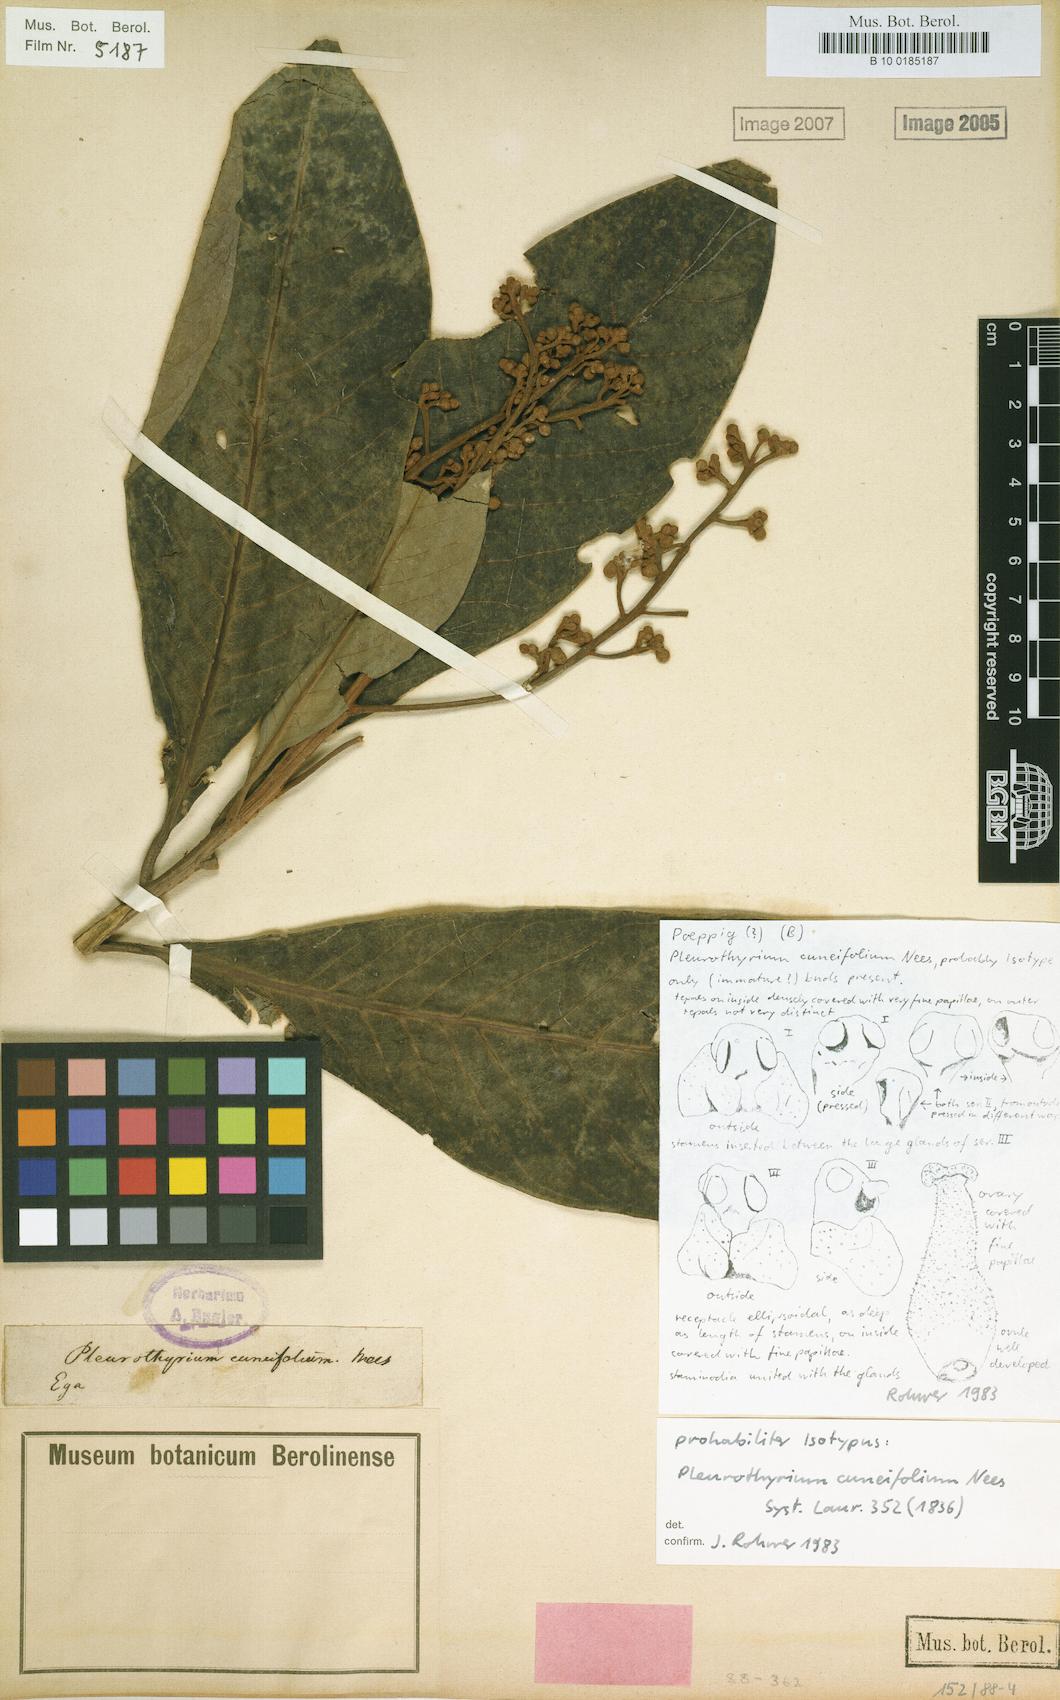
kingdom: Plantae
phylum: Tracheophyta
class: Magnoliopsida
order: Laurales
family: Lauraceae
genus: Pleurothyrium
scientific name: Pleurothyrium cuneifolium
